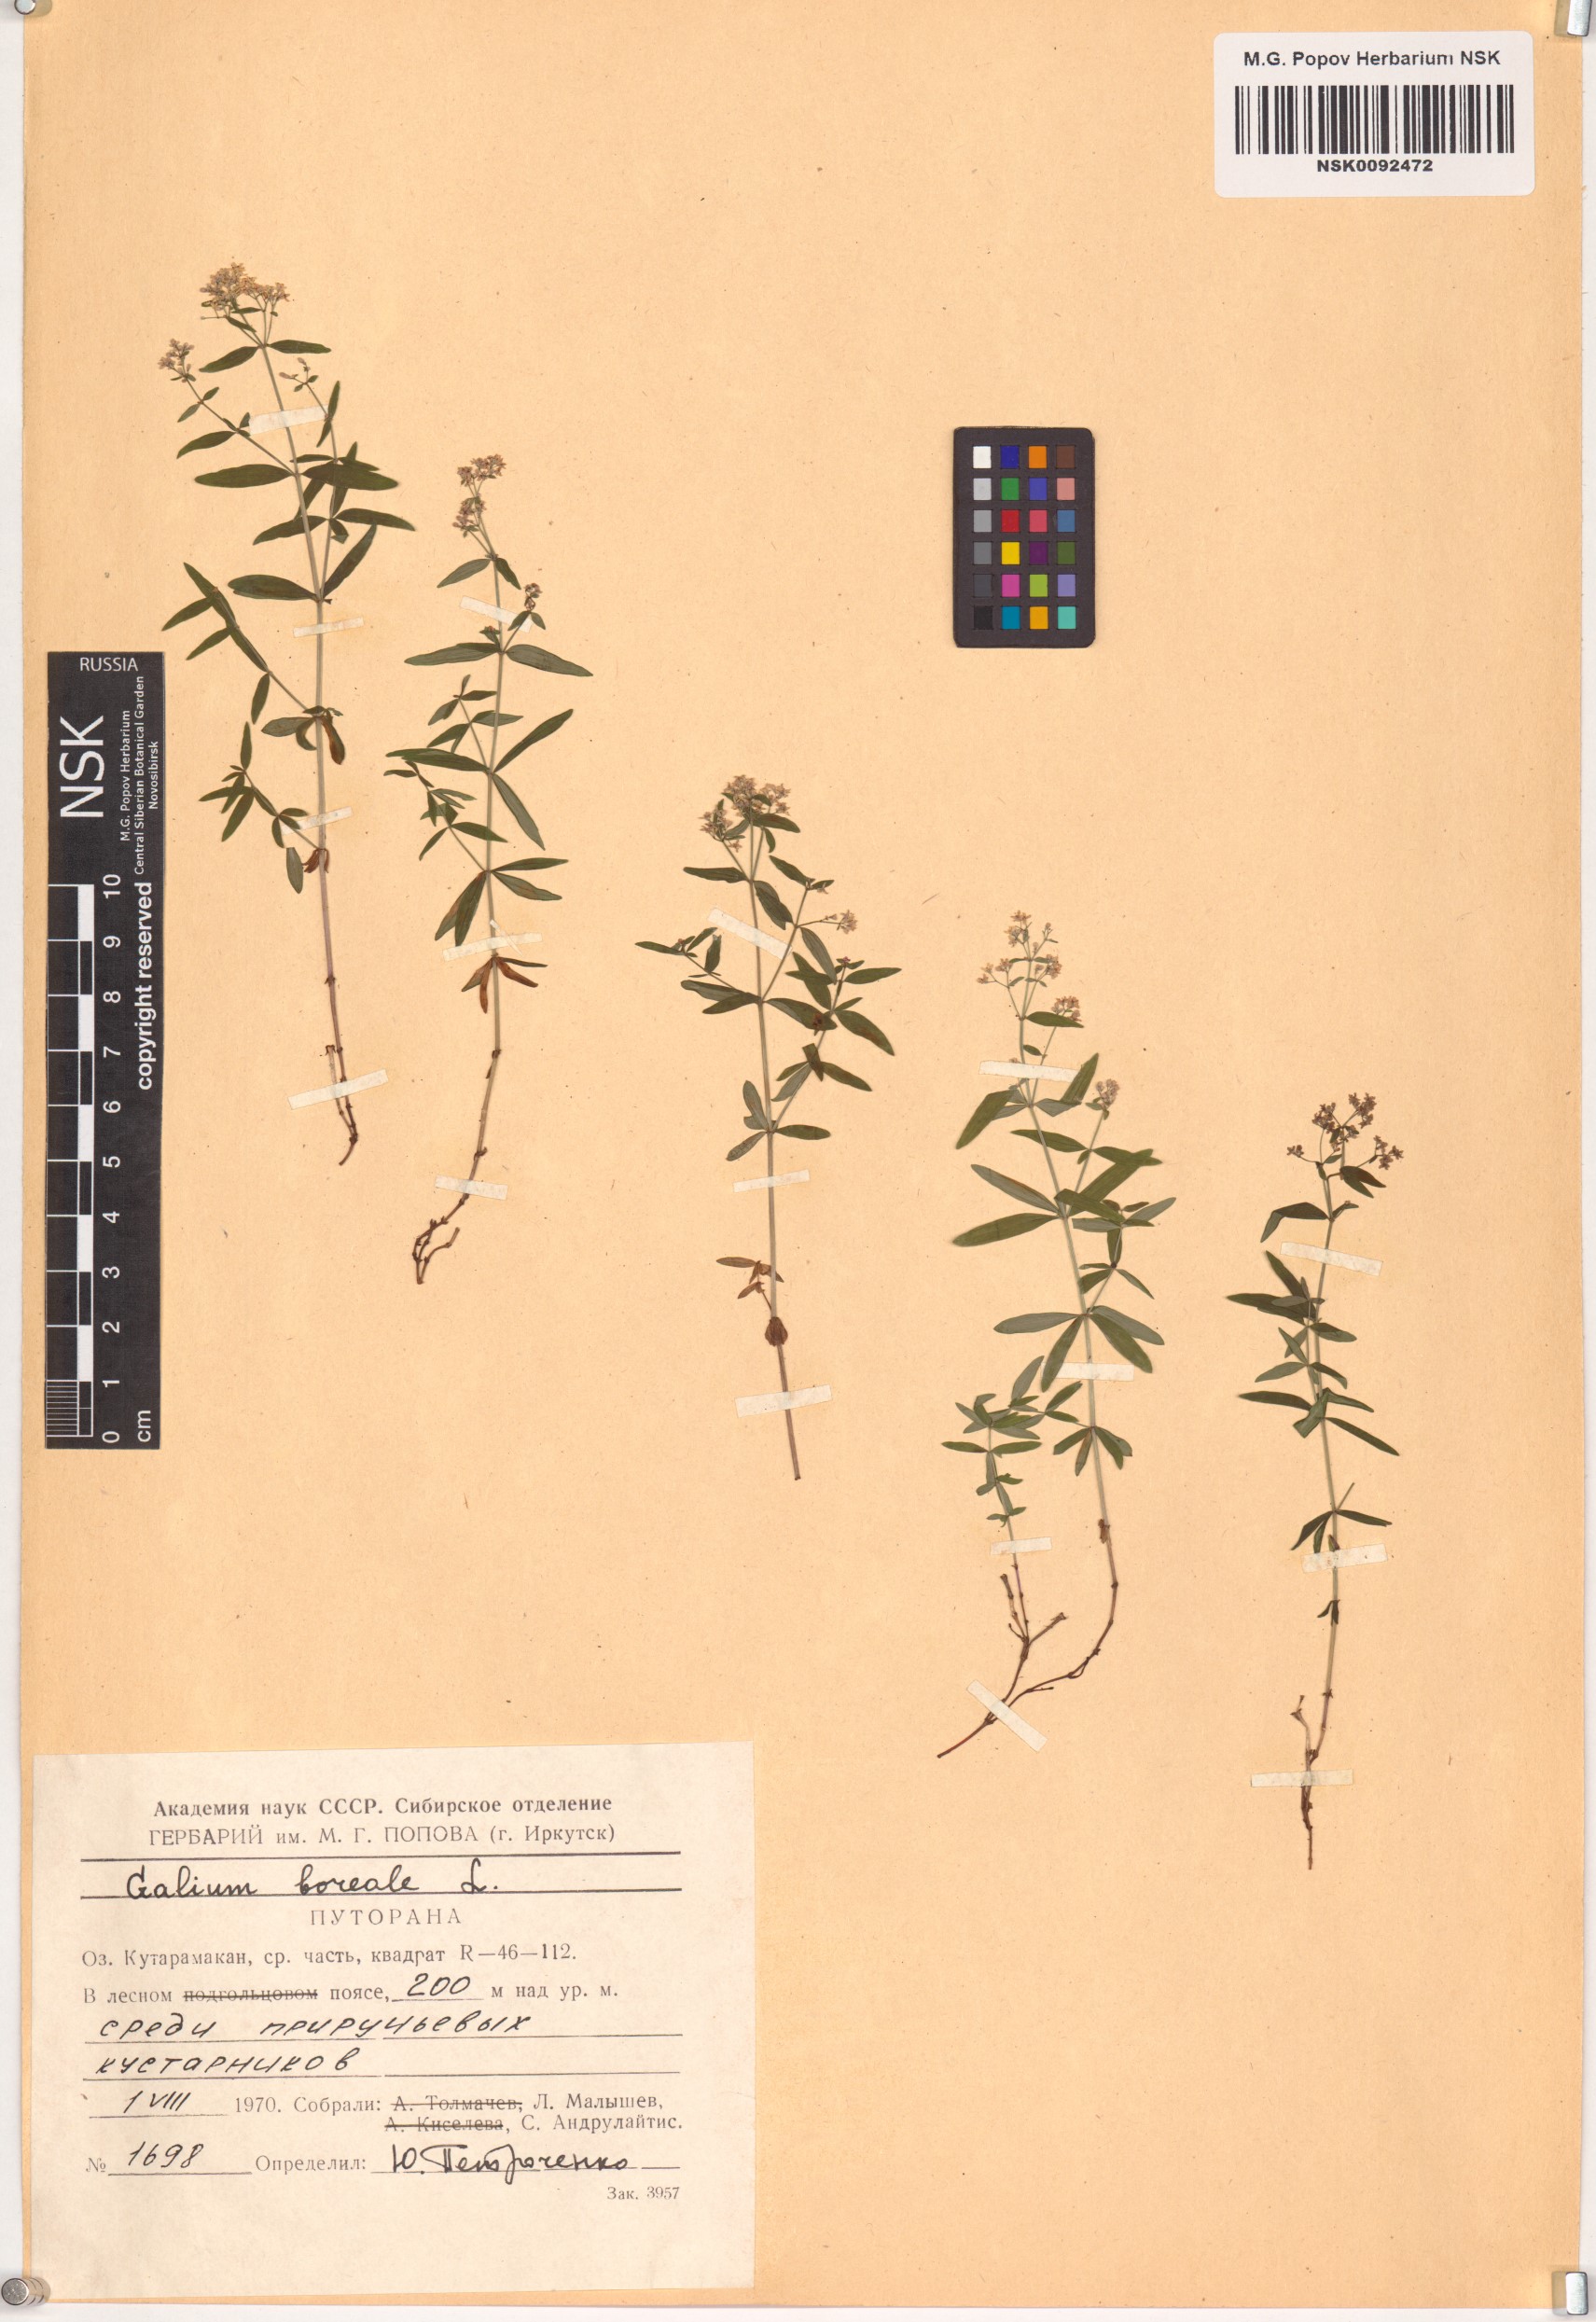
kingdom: Plantae
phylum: Tracheophyta
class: Magnoliopsida
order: Gentianales
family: Rubiaceae
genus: Galium
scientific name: Galium boreale
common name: Northern bedstraw
